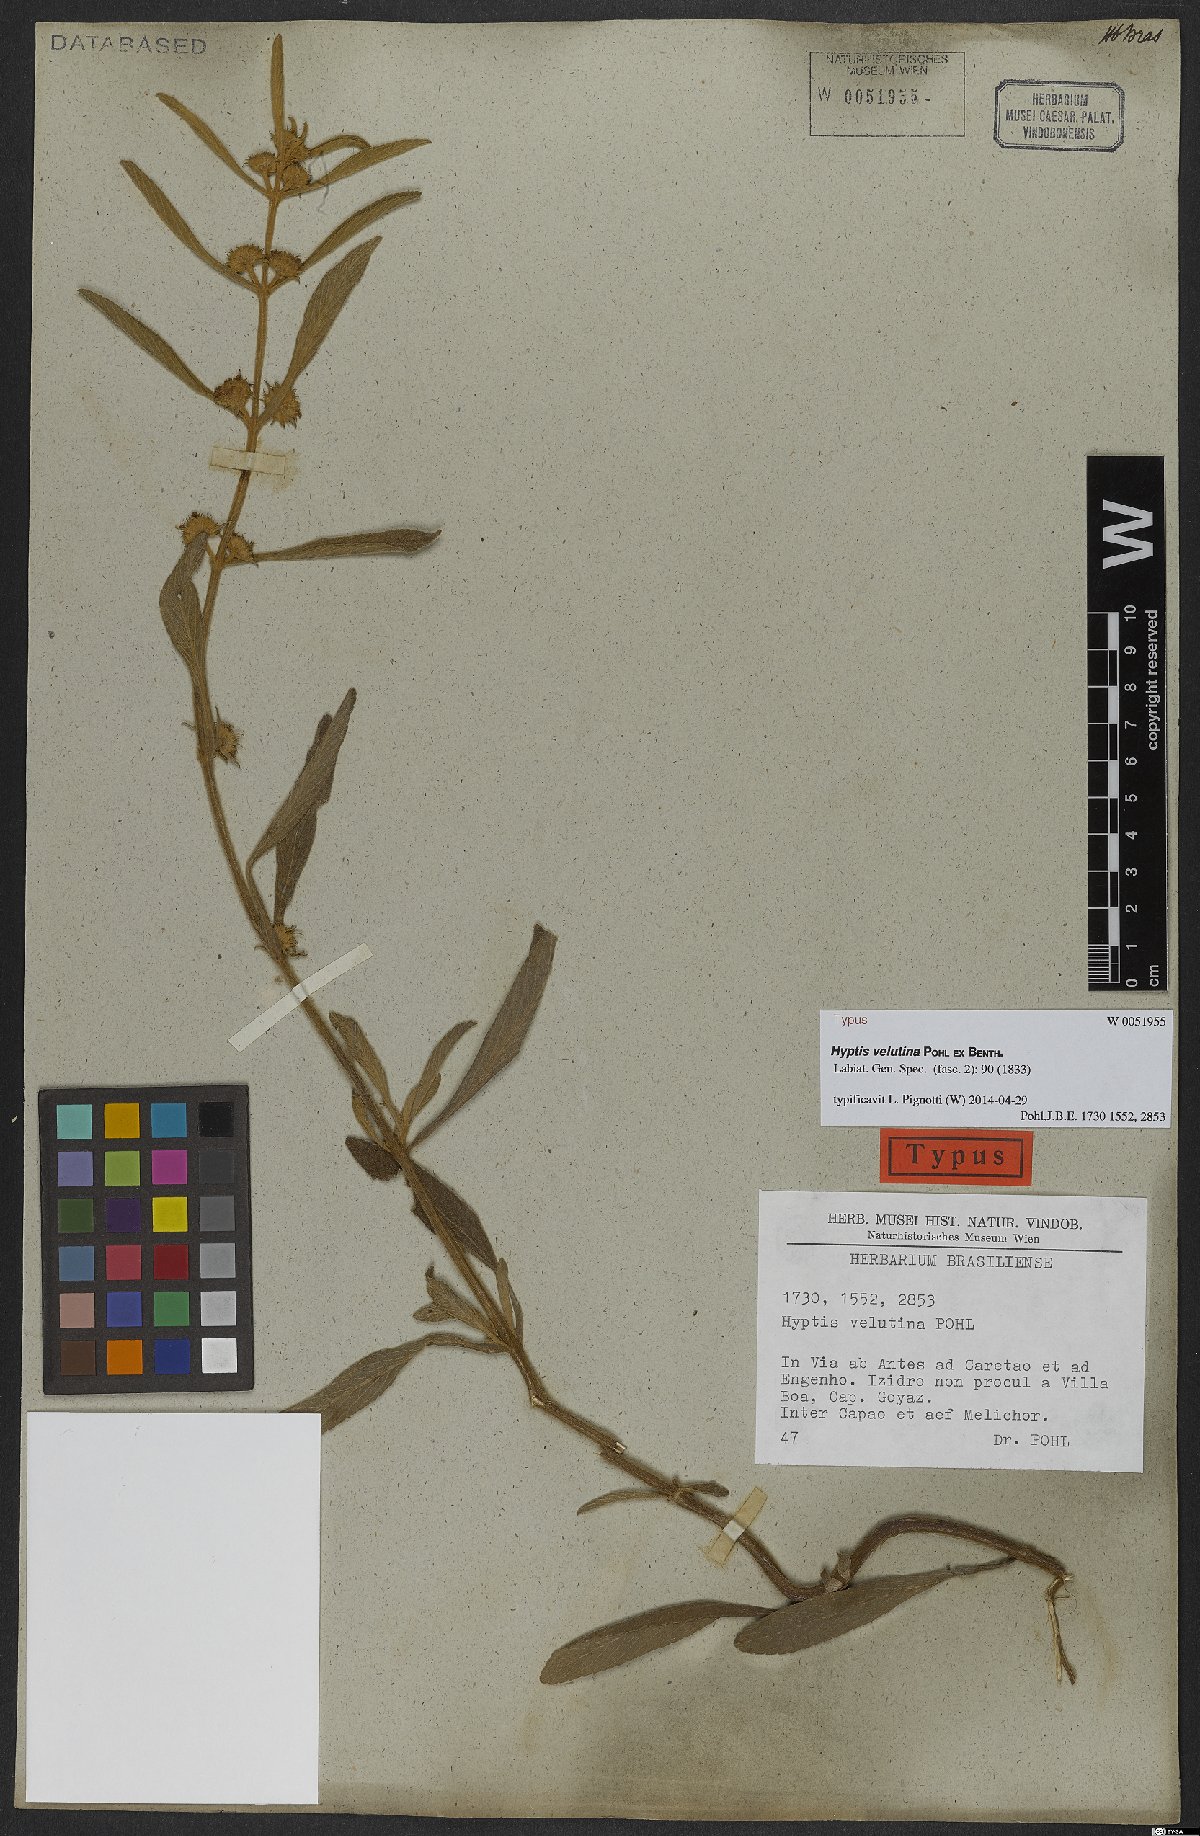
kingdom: Plantae
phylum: Tracheophyta
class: Magnoliopsida
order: Lamiales
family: Lamiaceae
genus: Hyptis
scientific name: Hyptis velutina
